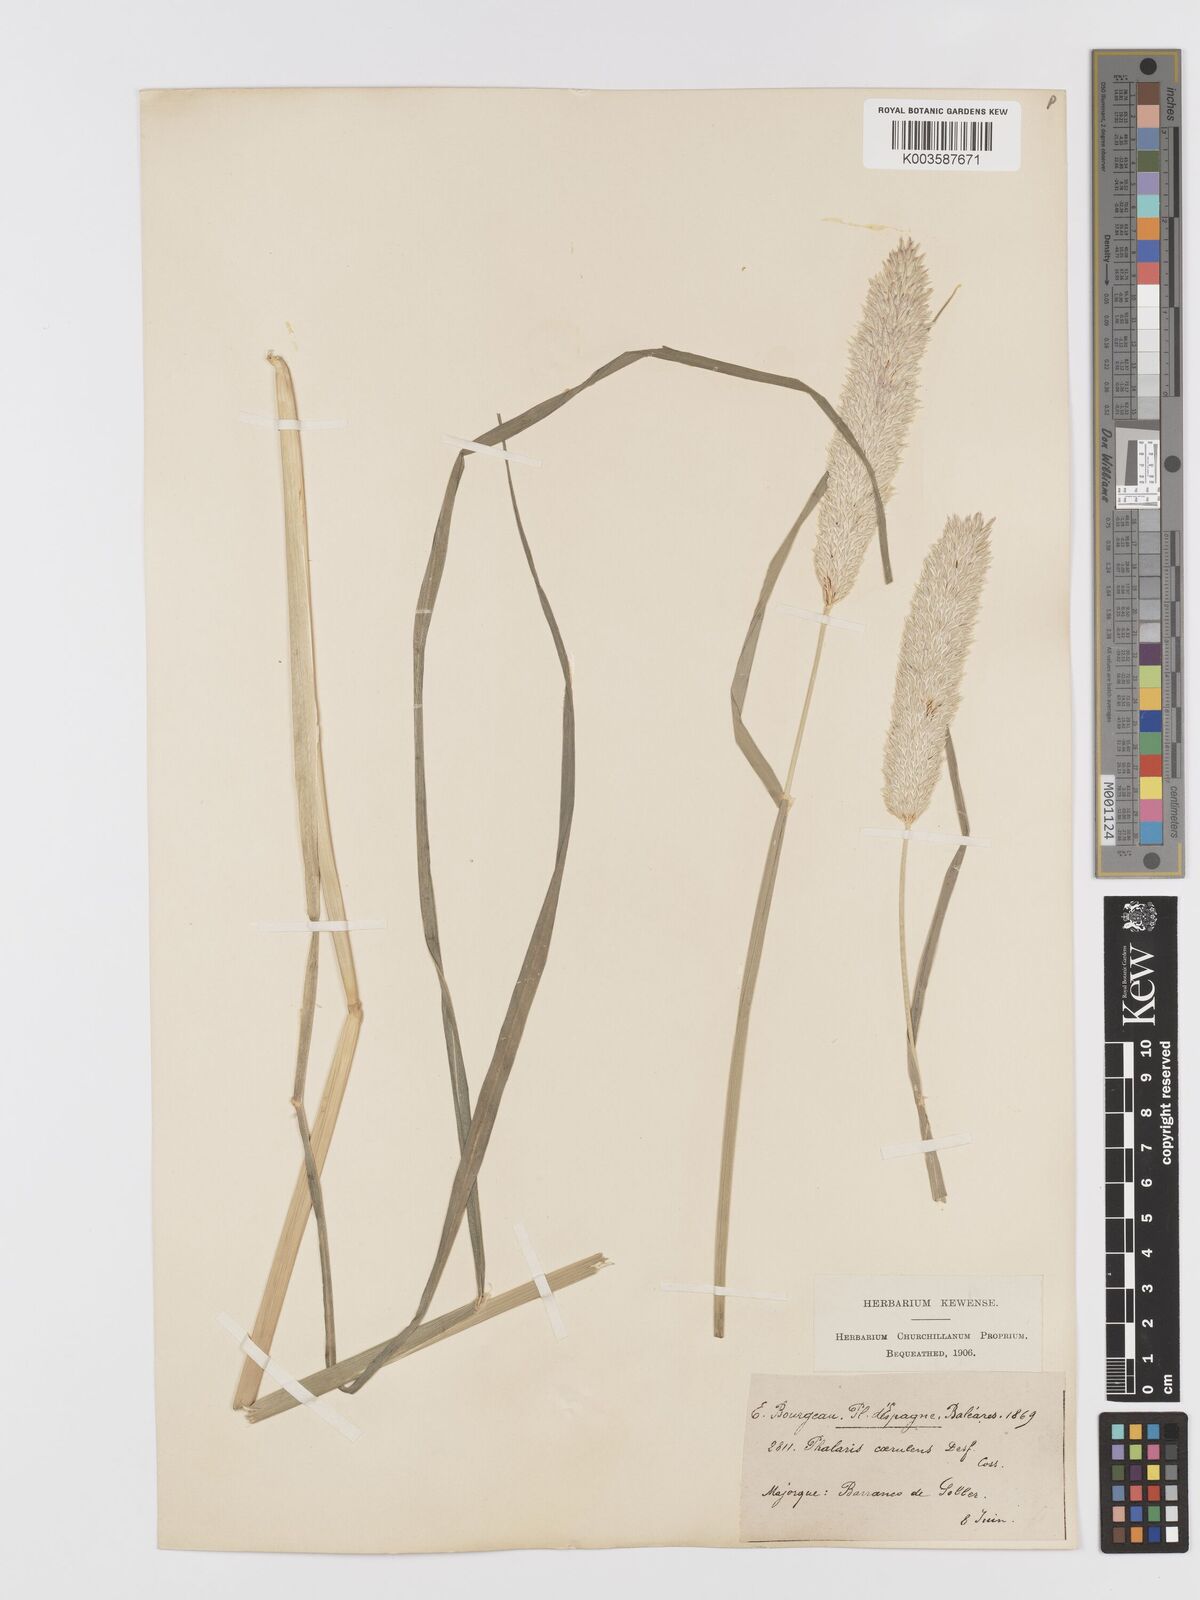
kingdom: Plantae
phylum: Tracheophyta
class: Liliopsida
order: Poales
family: Poaceae
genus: Phalaris
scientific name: Phalaris coerulescens
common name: Sunolgrass
